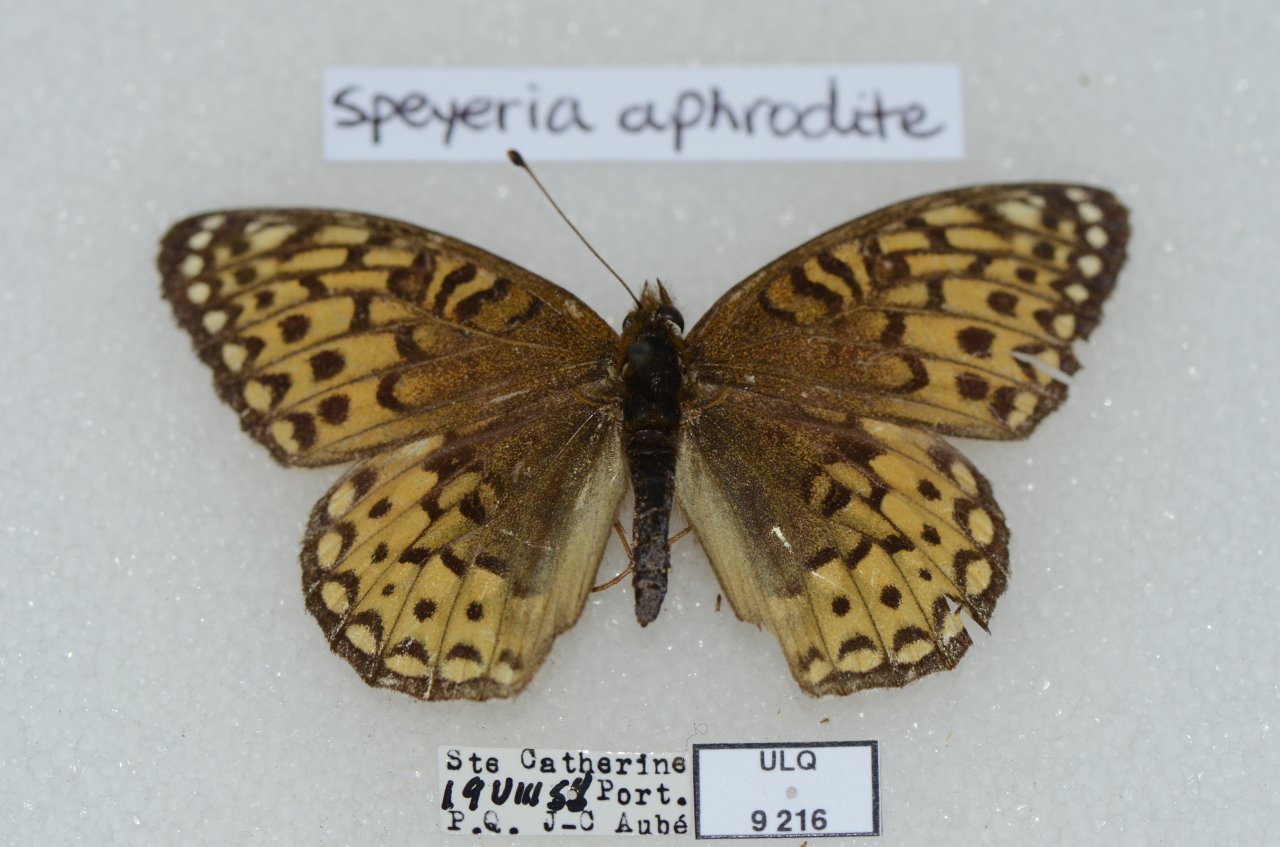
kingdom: Animalia
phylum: Arthropoda
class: Insecta
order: Lepidoptera
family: Nymphalidae
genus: Speyeria
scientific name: Speyeria atlantis
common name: Atlantis Fritillary
